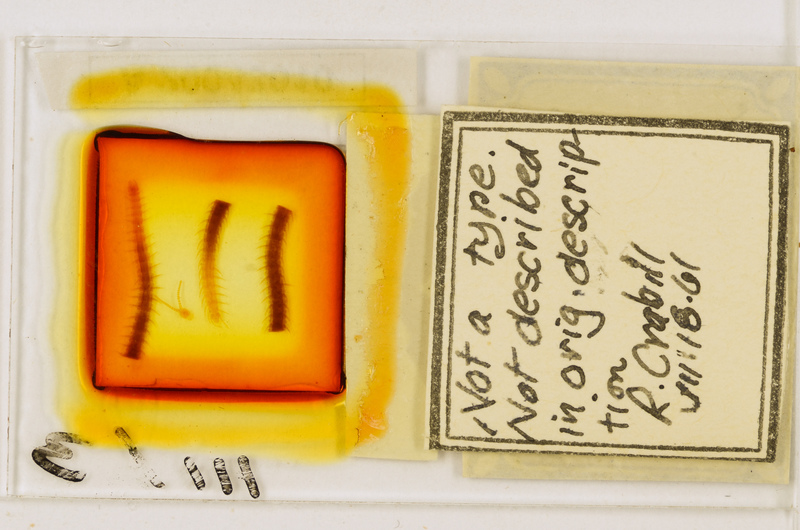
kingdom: Animalia
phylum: Arthropoda
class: Chilopoda
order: Geophilomorpha
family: Geophilidae
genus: Geoperingueyia
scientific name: Geoperingueyia dentata
